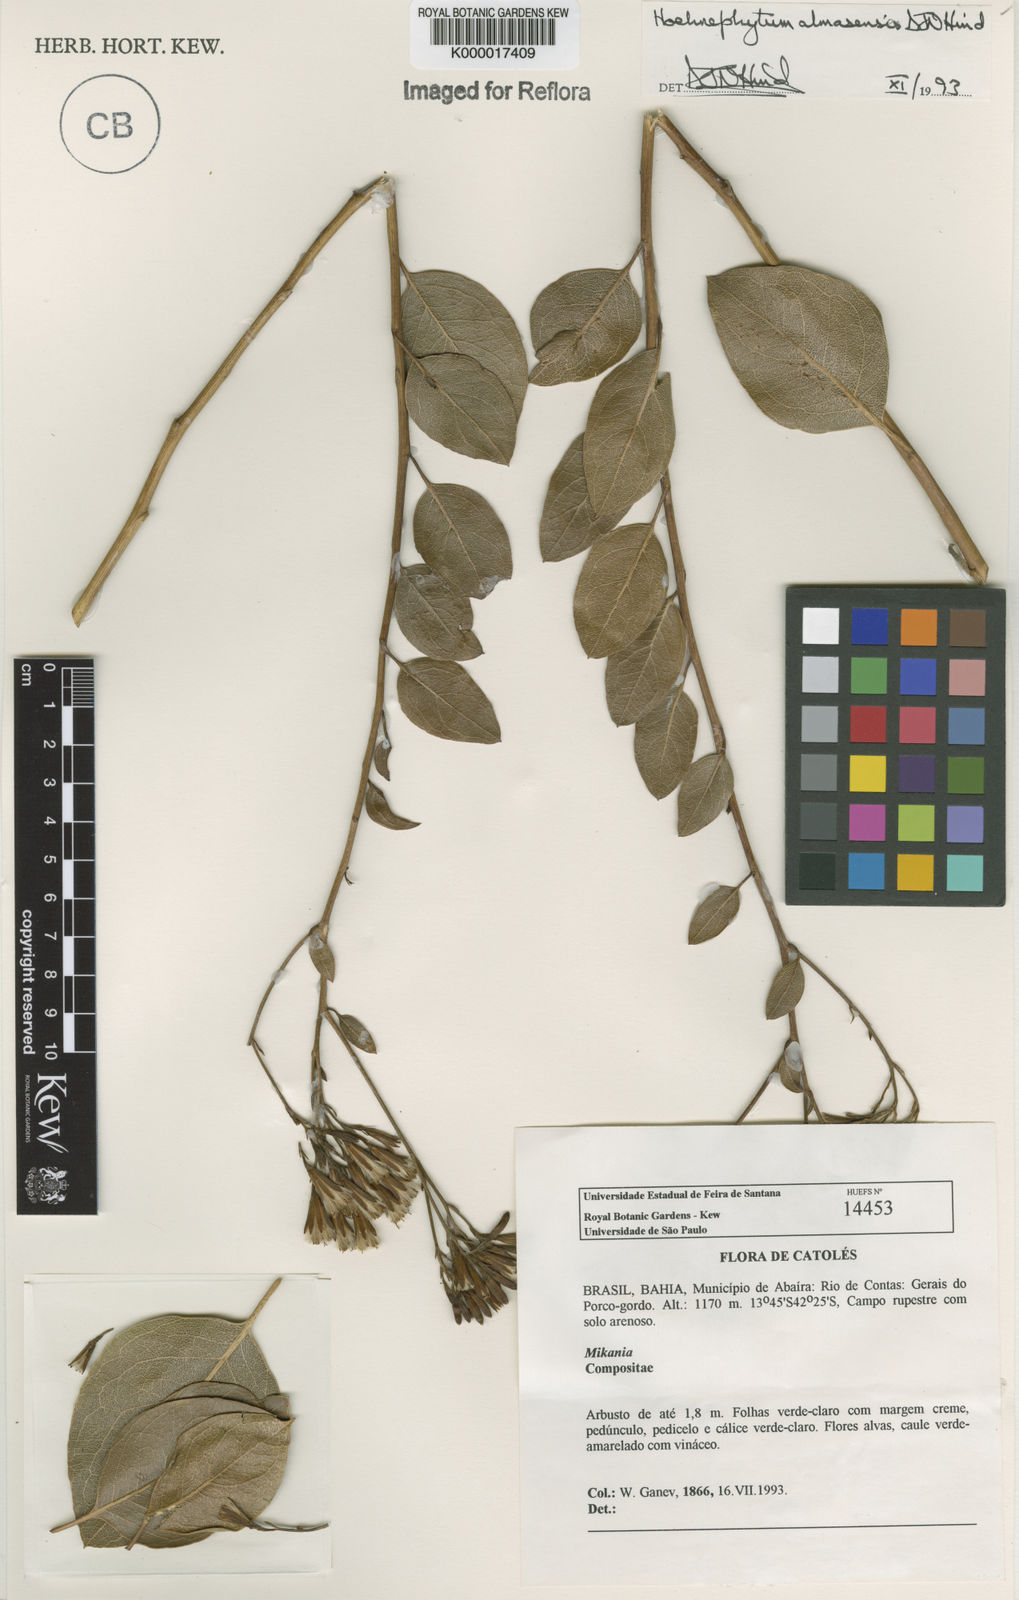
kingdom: Plantae
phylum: Tracheophyta
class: Magnoliopsida
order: Asterales
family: Asteraceae
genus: Hoehnephytum
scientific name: Hoehnephytum almasense
